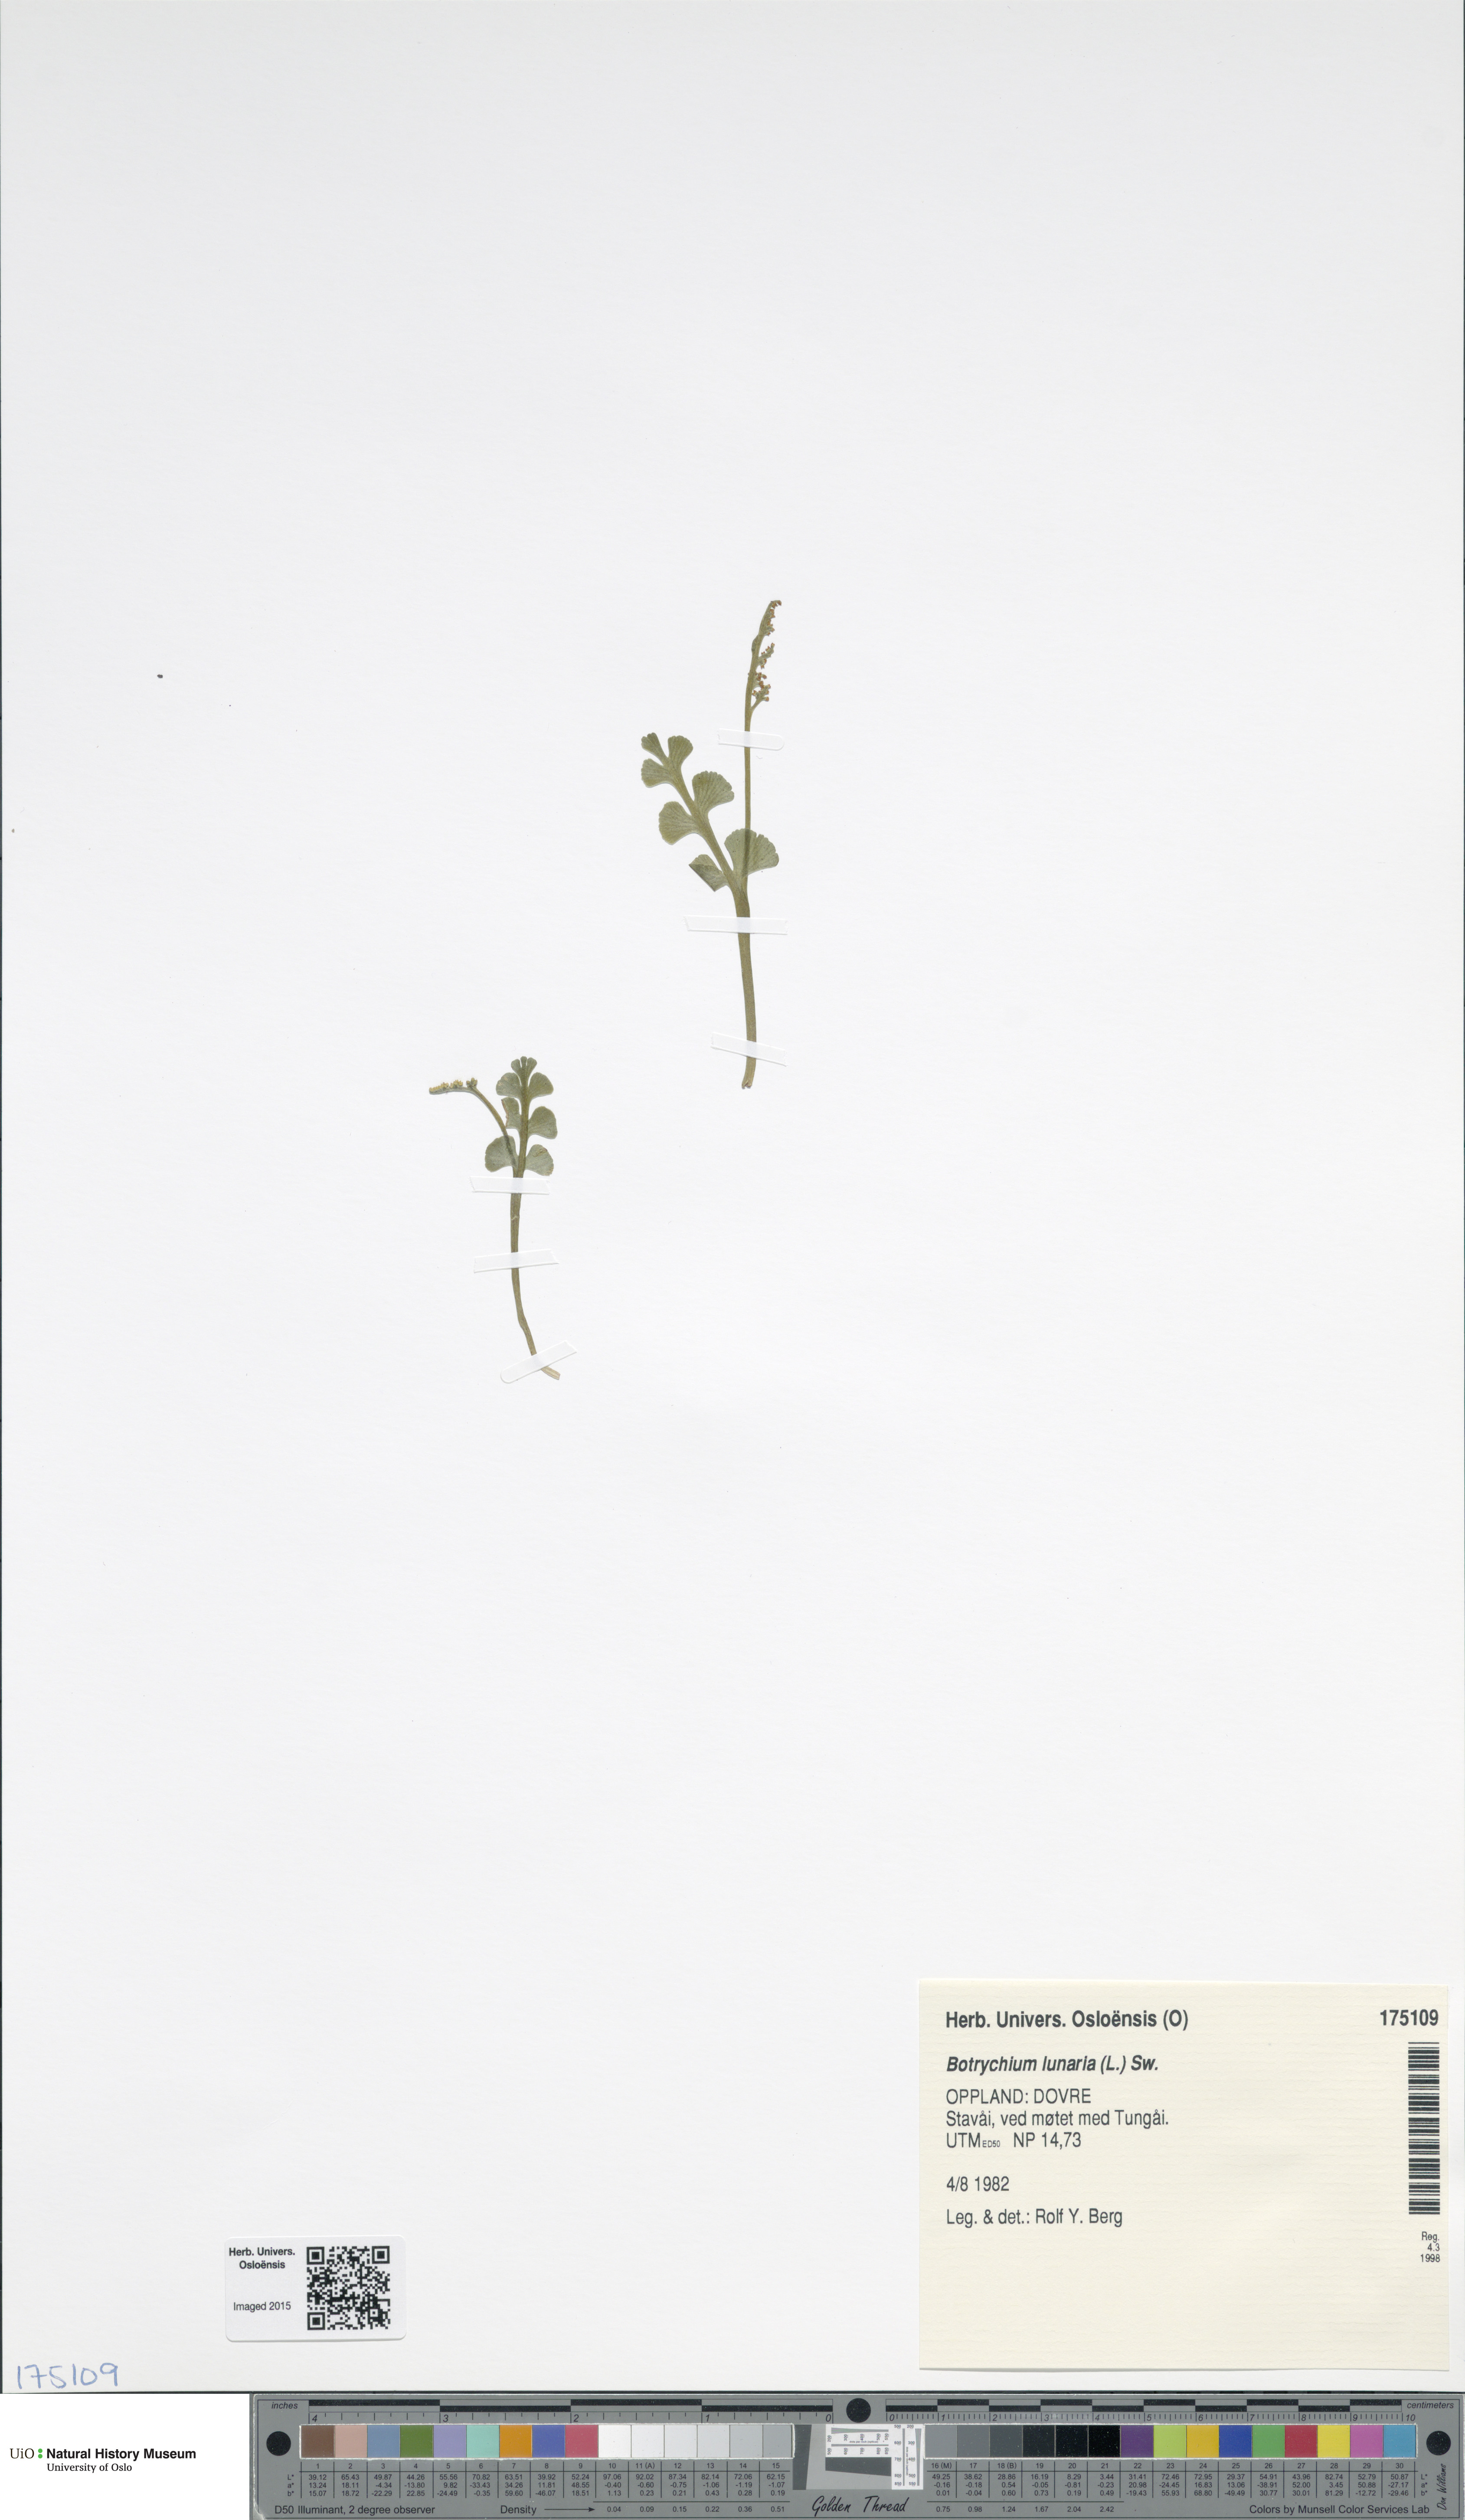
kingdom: Plantae
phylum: Tracheophyta
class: Polypodiopsida
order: Ophioglossales
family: Ophioglossaceae
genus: Botrychium
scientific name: Botrychium lunaria
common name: Moonwort
